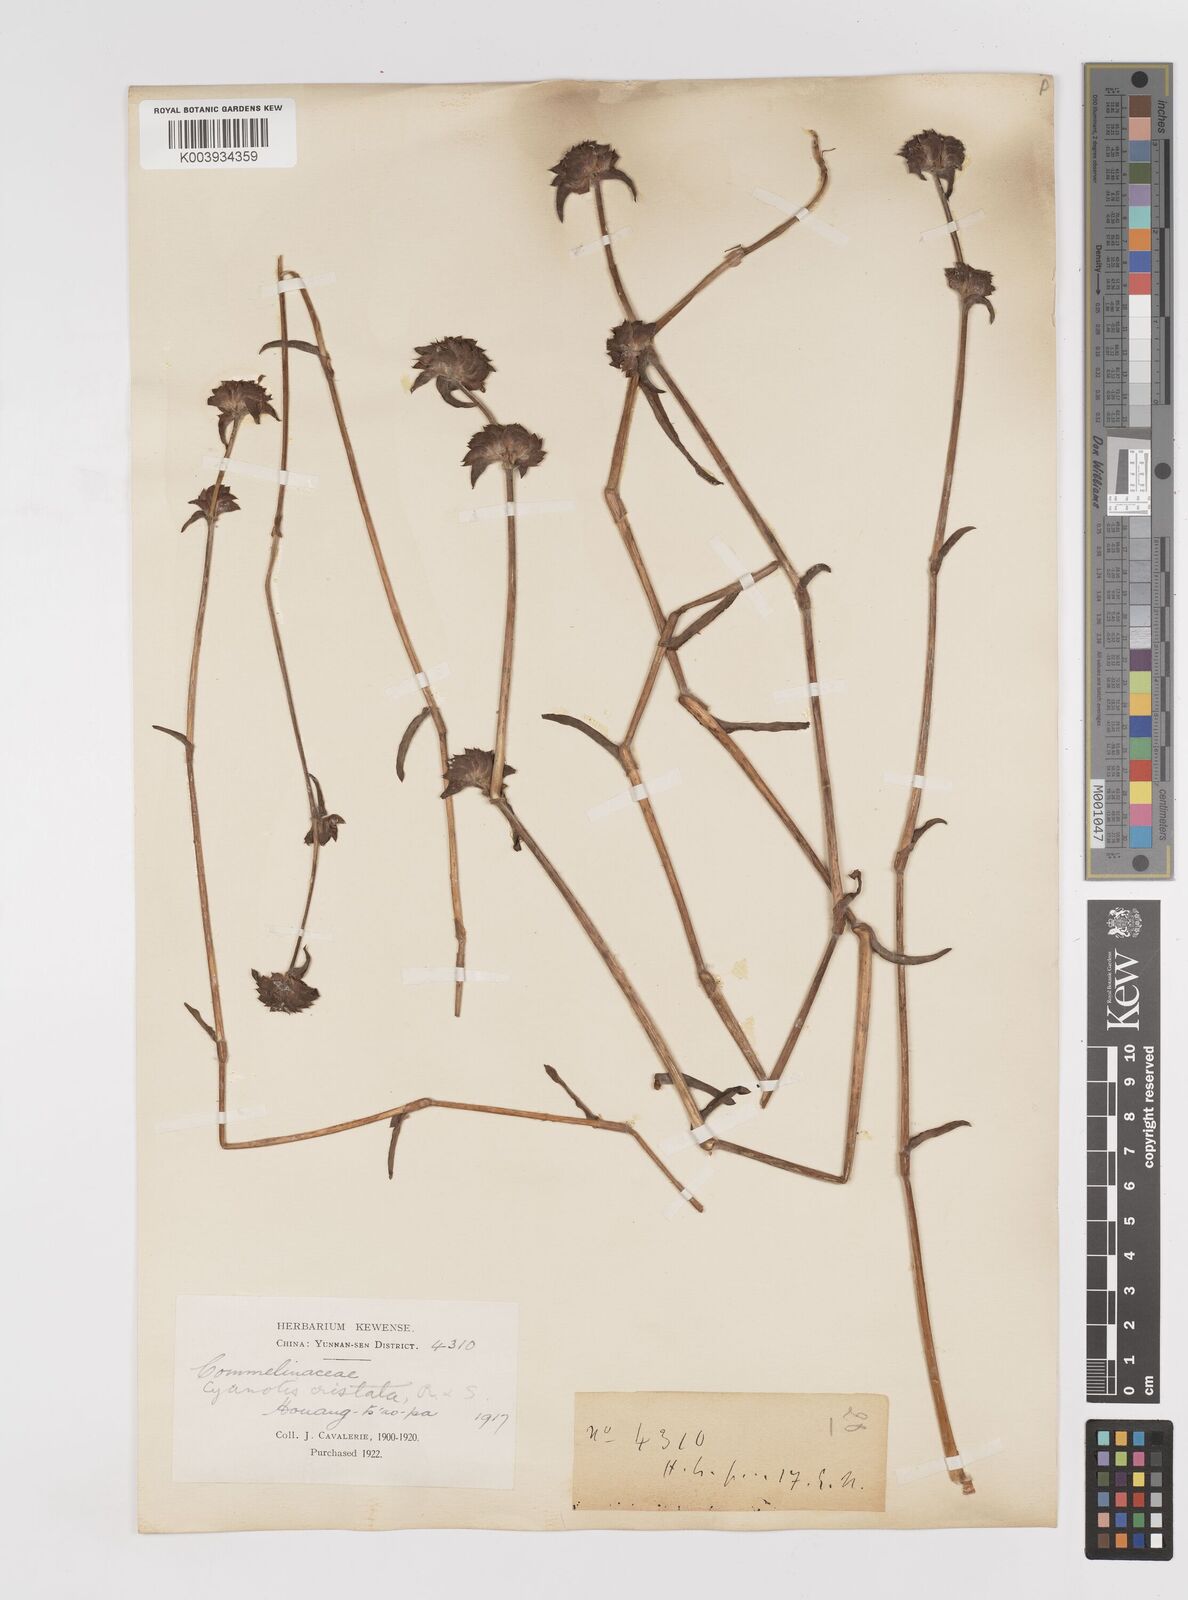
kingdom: Plantae
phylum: Tracheophyta
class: Liliopsida
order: Commelinales
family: Commelinaceae
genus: Cyanotis
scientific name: Cyanotis arachnoidea
